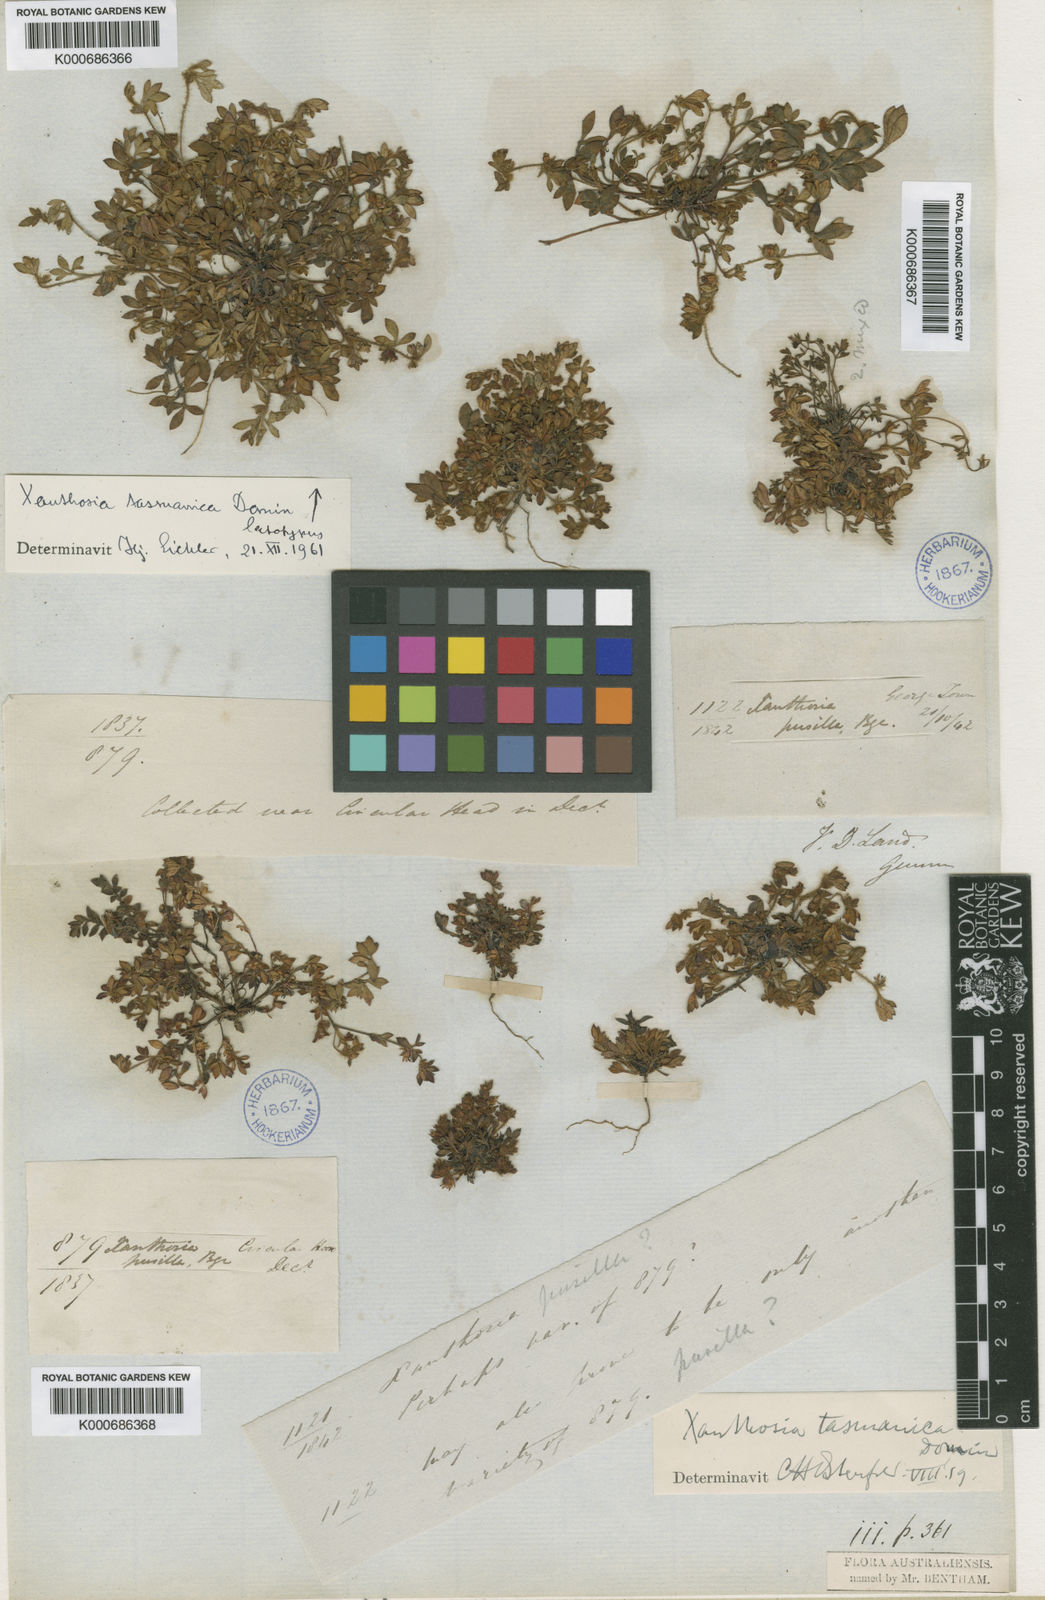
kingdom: Plantae
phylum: Tracheophyta
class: Magnoliopsida
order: Apiales
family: Apiaceae
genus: Xanthosia
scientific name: Xanthosia tasmanica
